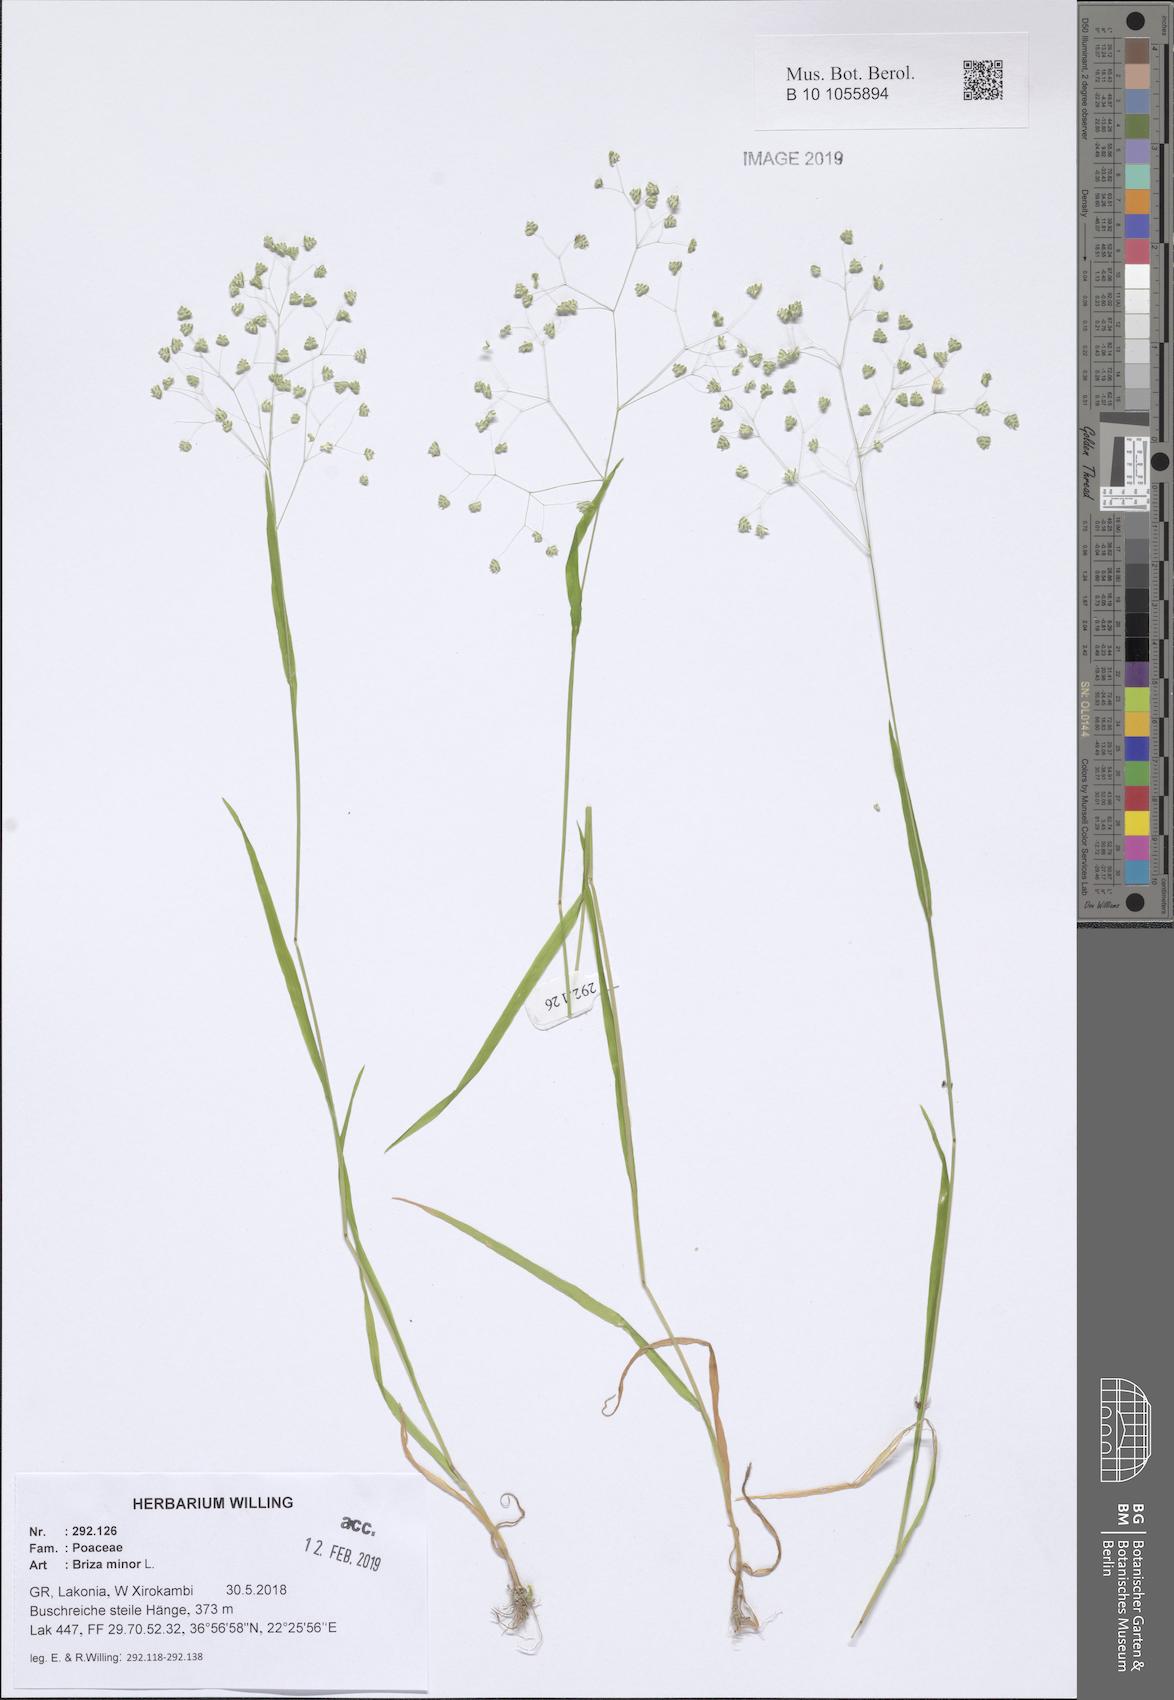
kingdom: Plantae
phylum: Tracheophyta
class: Liliopsida
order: Poales
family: Poaceae
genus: Briza
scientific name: Briza minor
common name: Lesser quaking-grass
